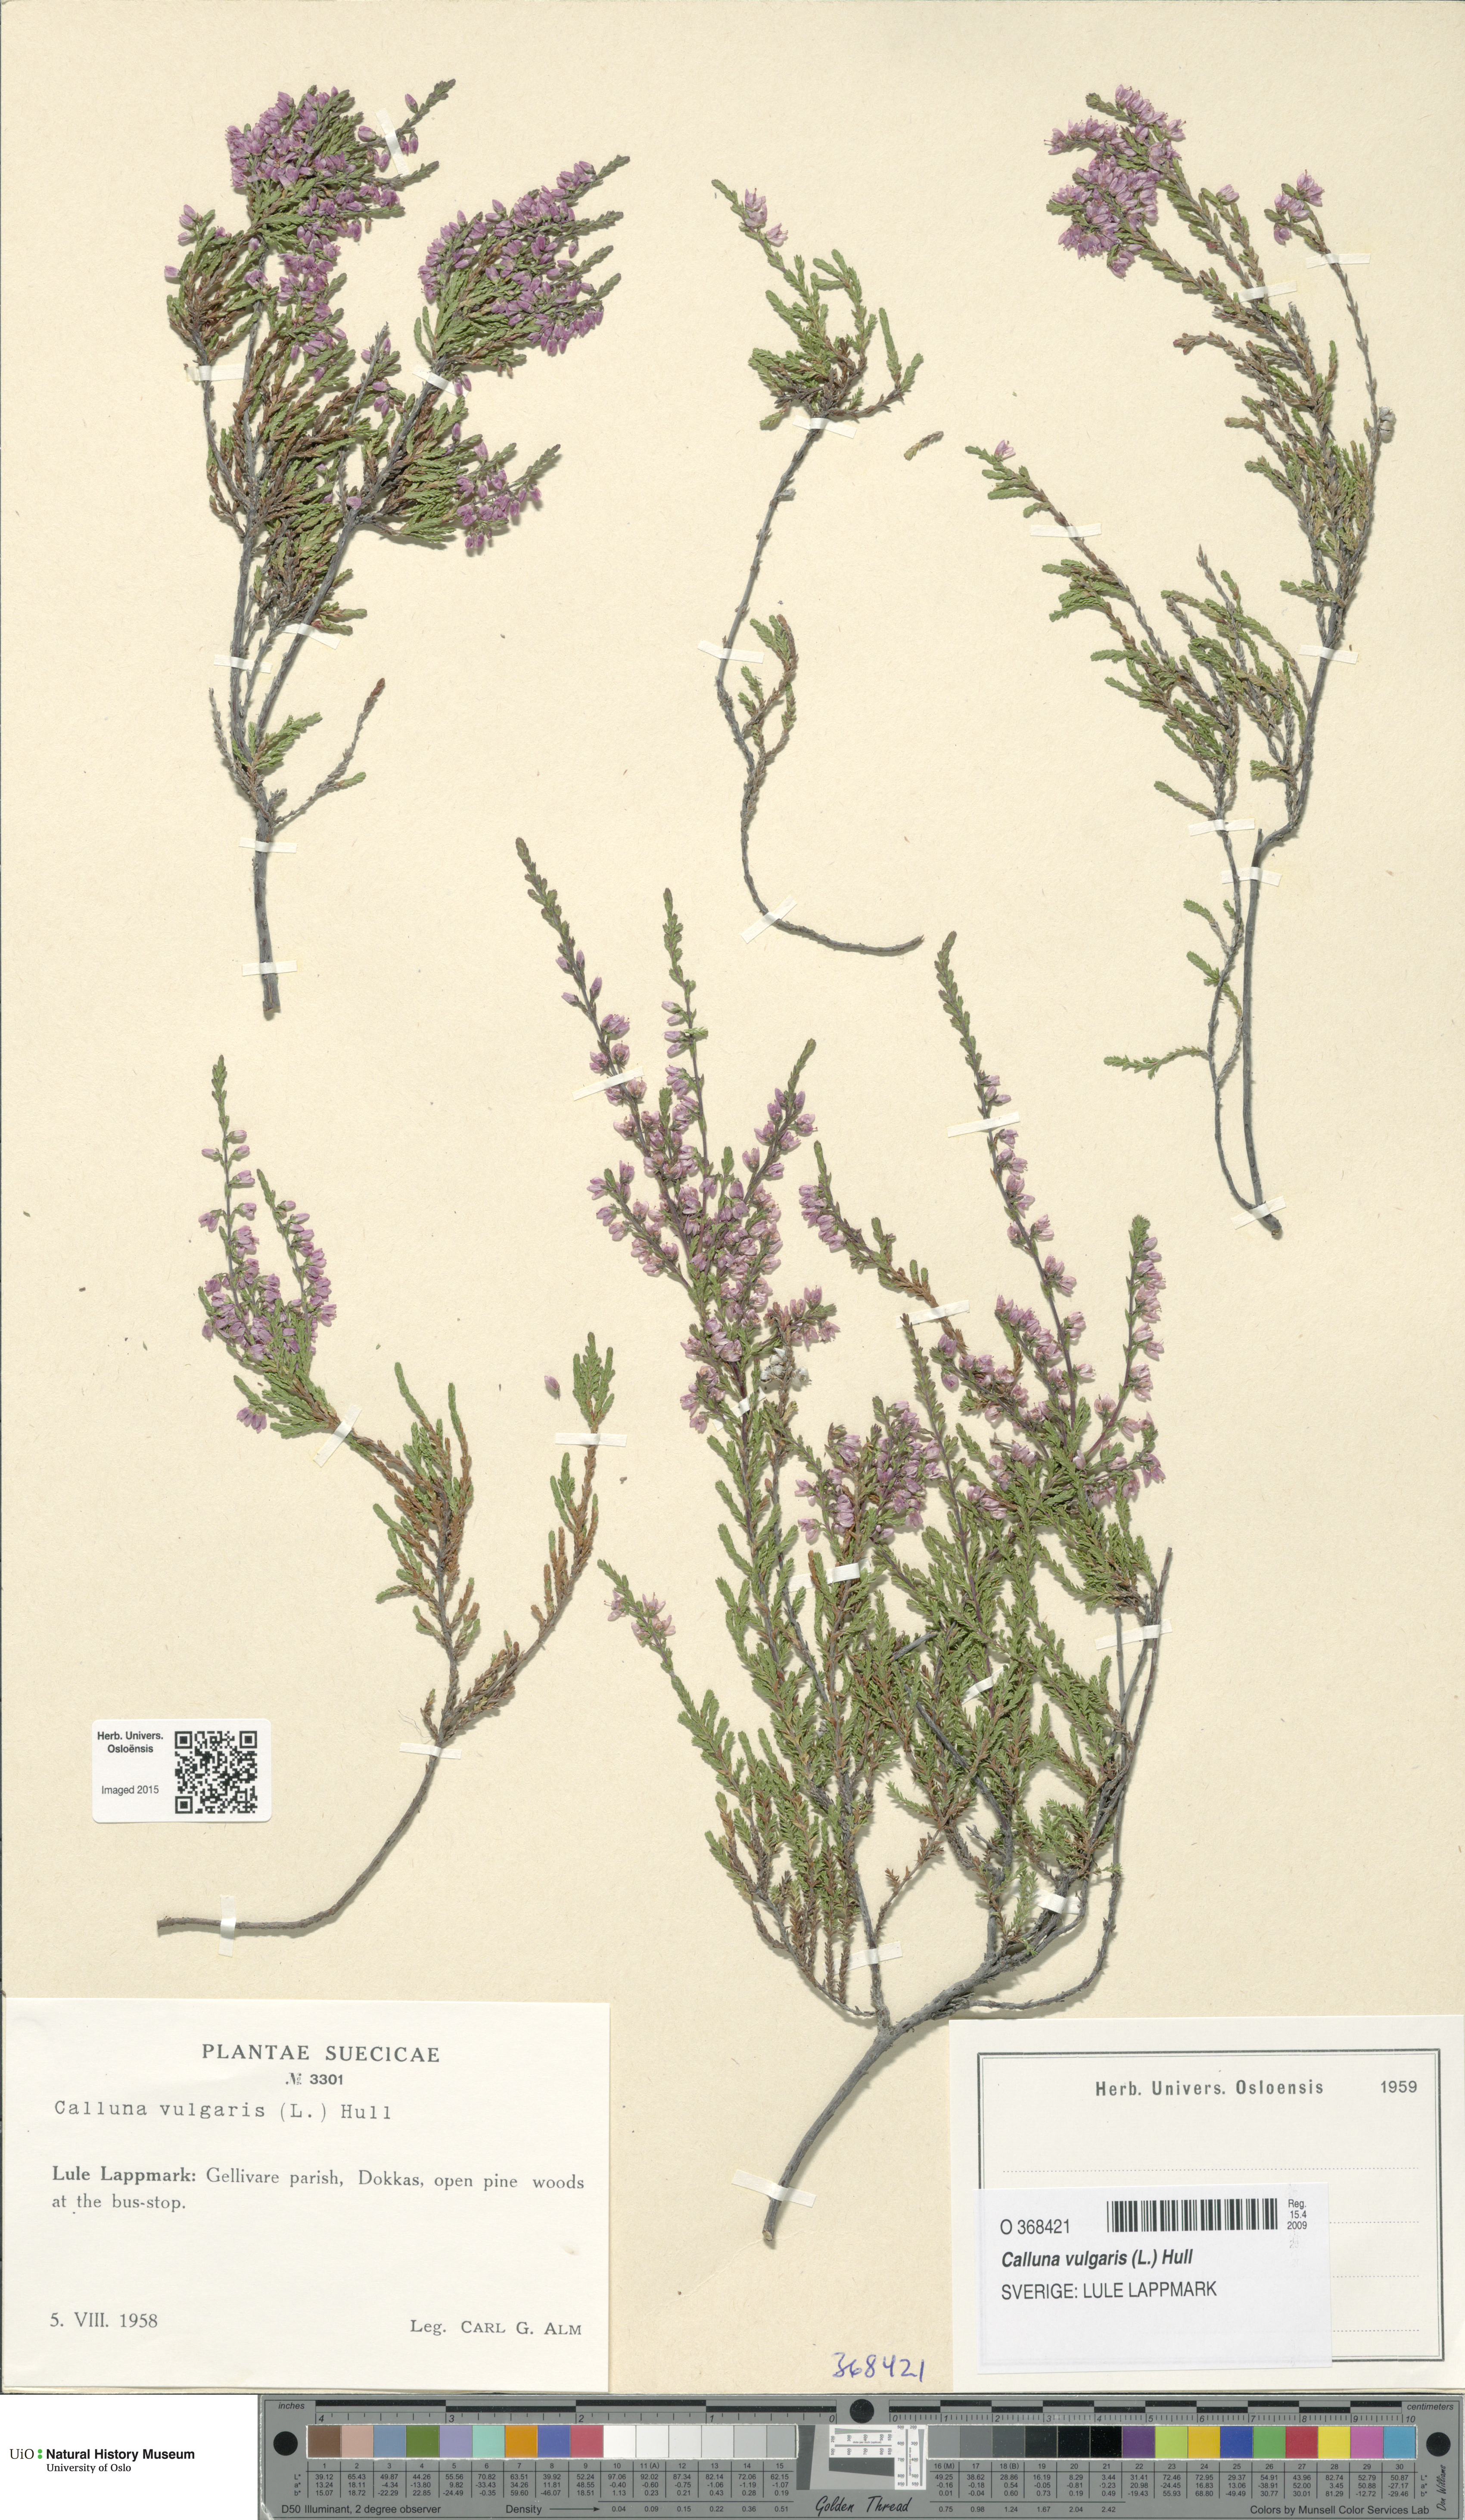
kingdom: Plantae
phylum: Tracheophyta
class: Magnoliopsida
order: Ericales
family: Ericaceae
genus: Calluna
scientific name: Calluna vulgaris
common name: Heather
